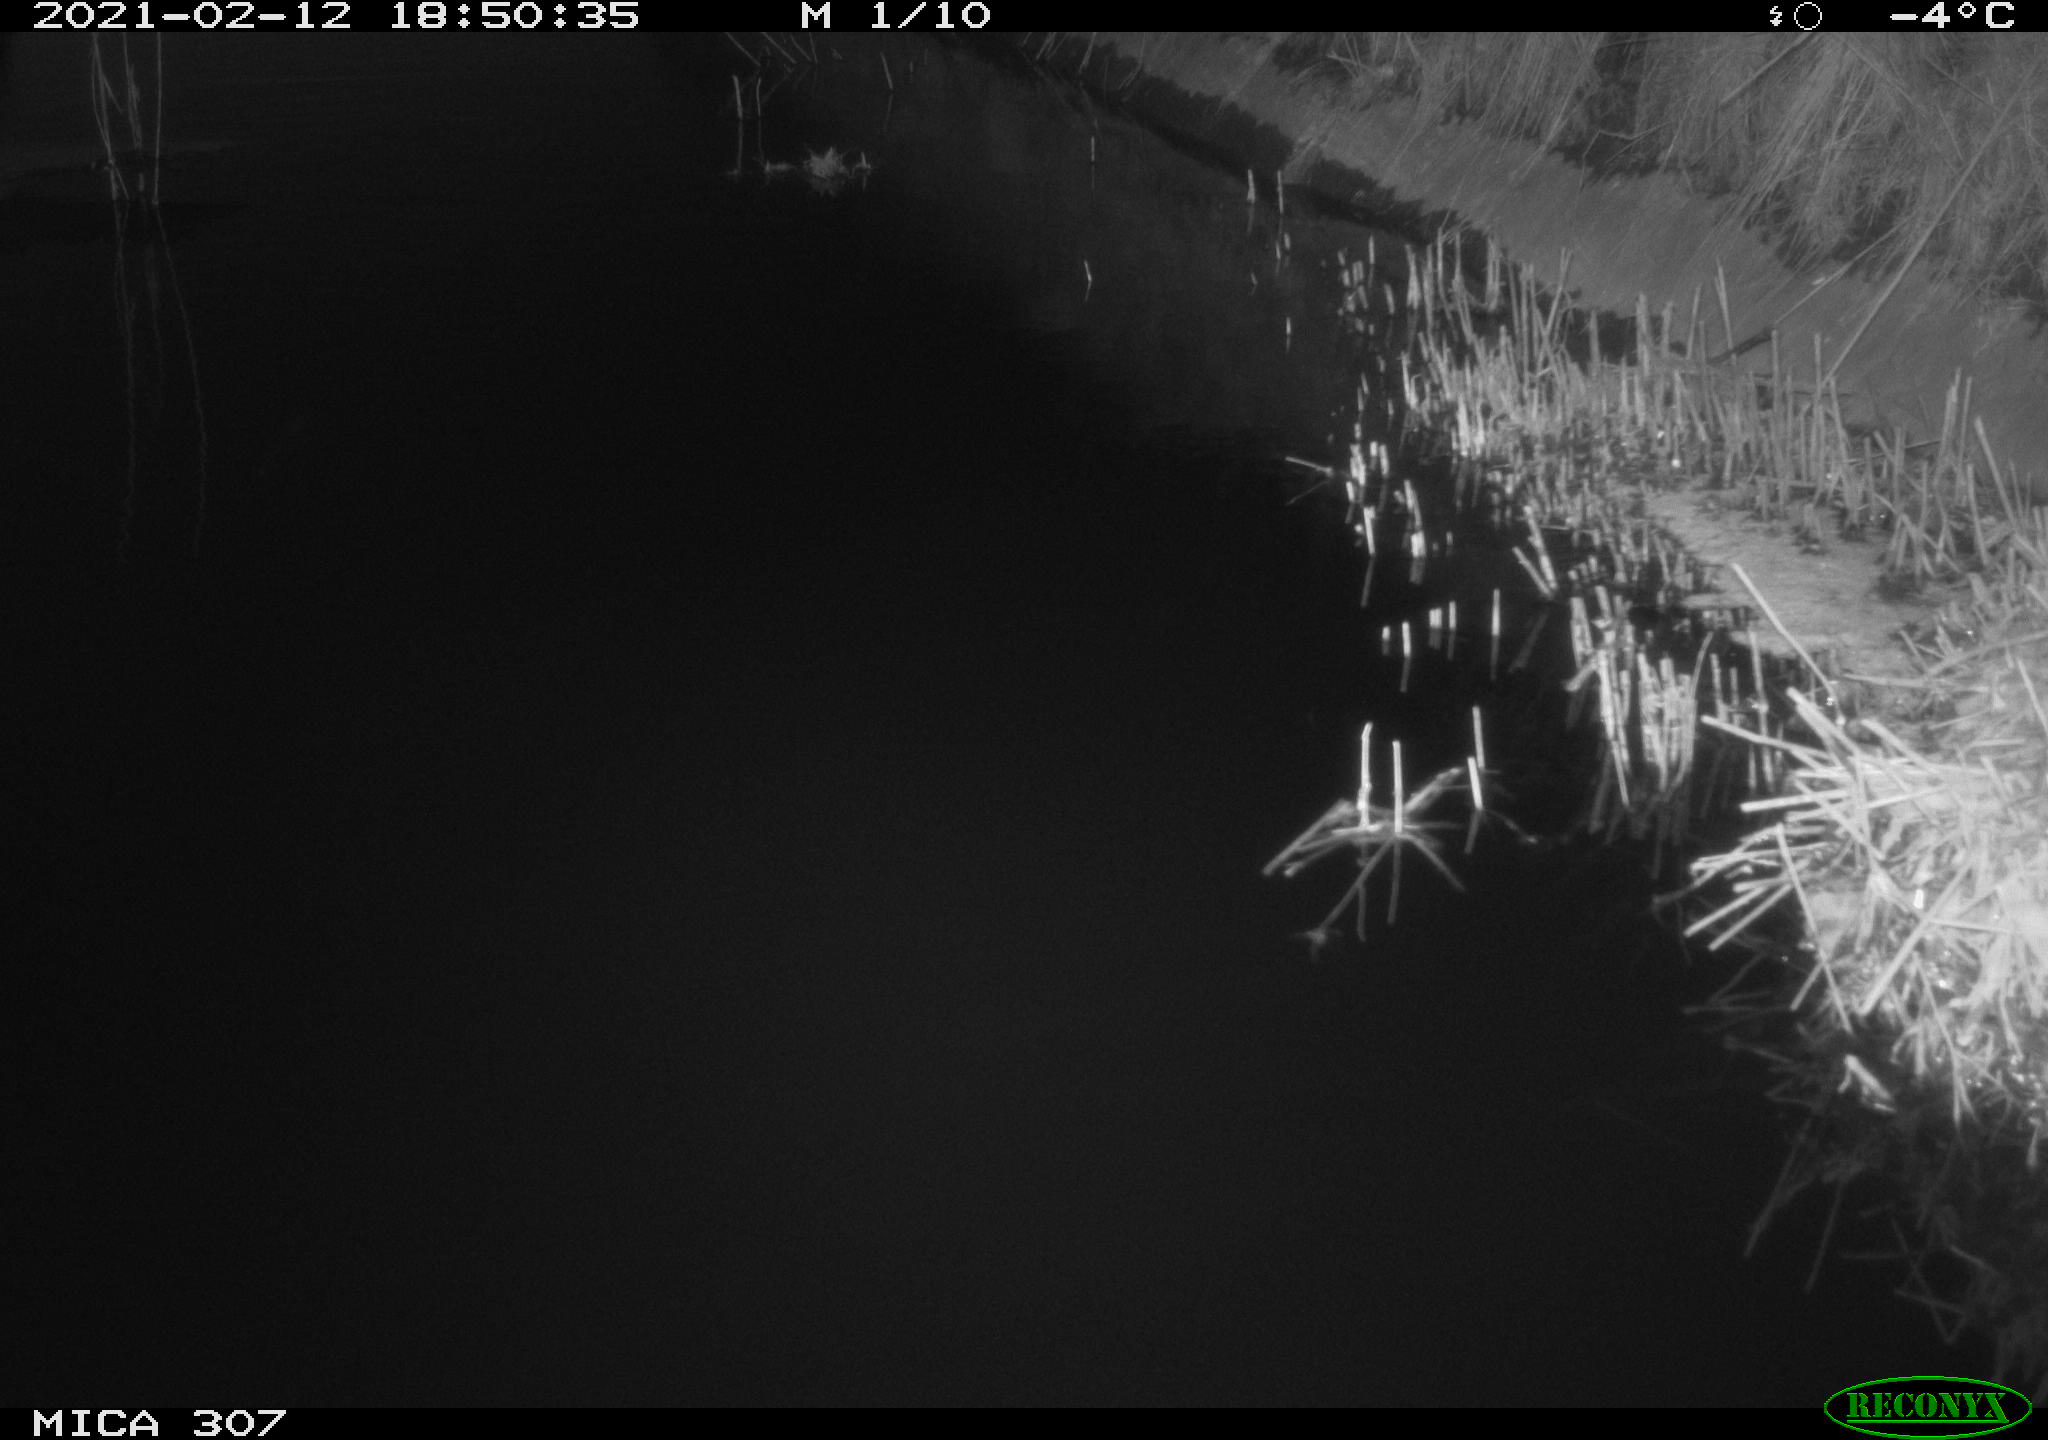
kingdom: Animalia
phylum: Chordata
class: Mammalia
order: Rodentia
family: Muridae
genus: Rattus
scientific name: Rattus norvegicus
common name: Brown rat
